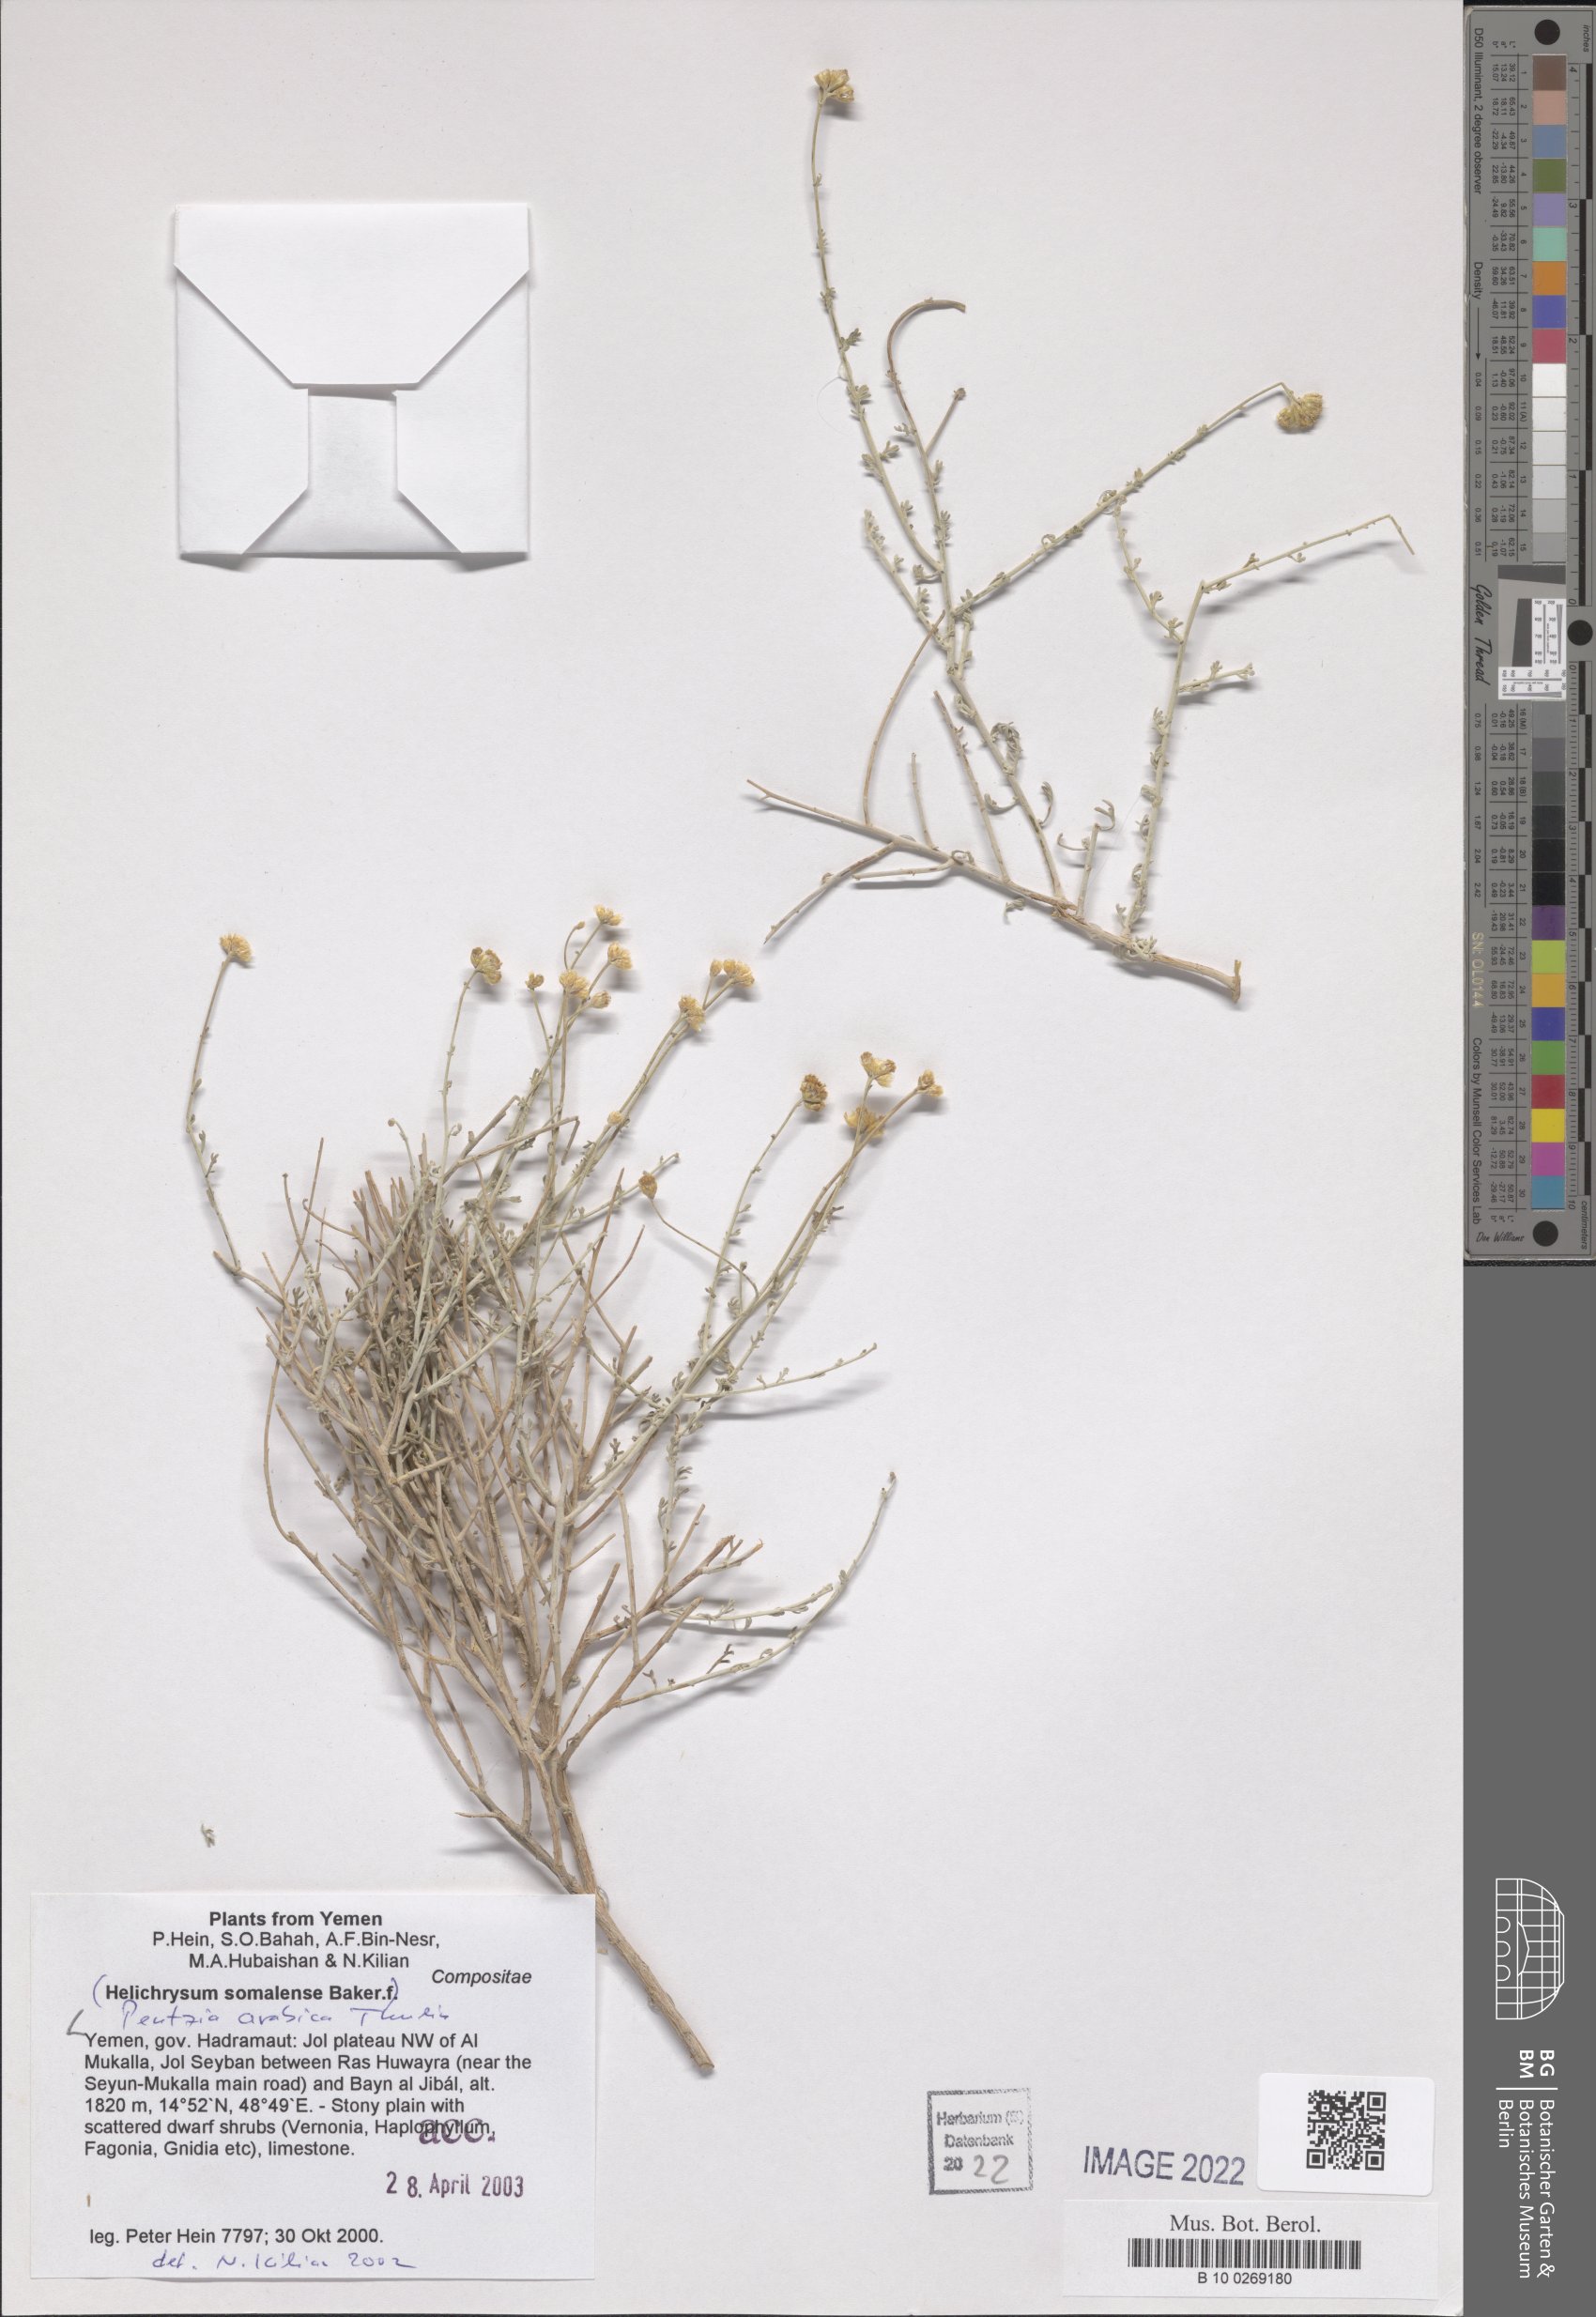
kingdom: Plantae
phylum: Tracheophyta
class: Magnoliopsida
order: Asterales
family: Asteraceae
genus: Pentzia
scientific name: Pentzia arabica
